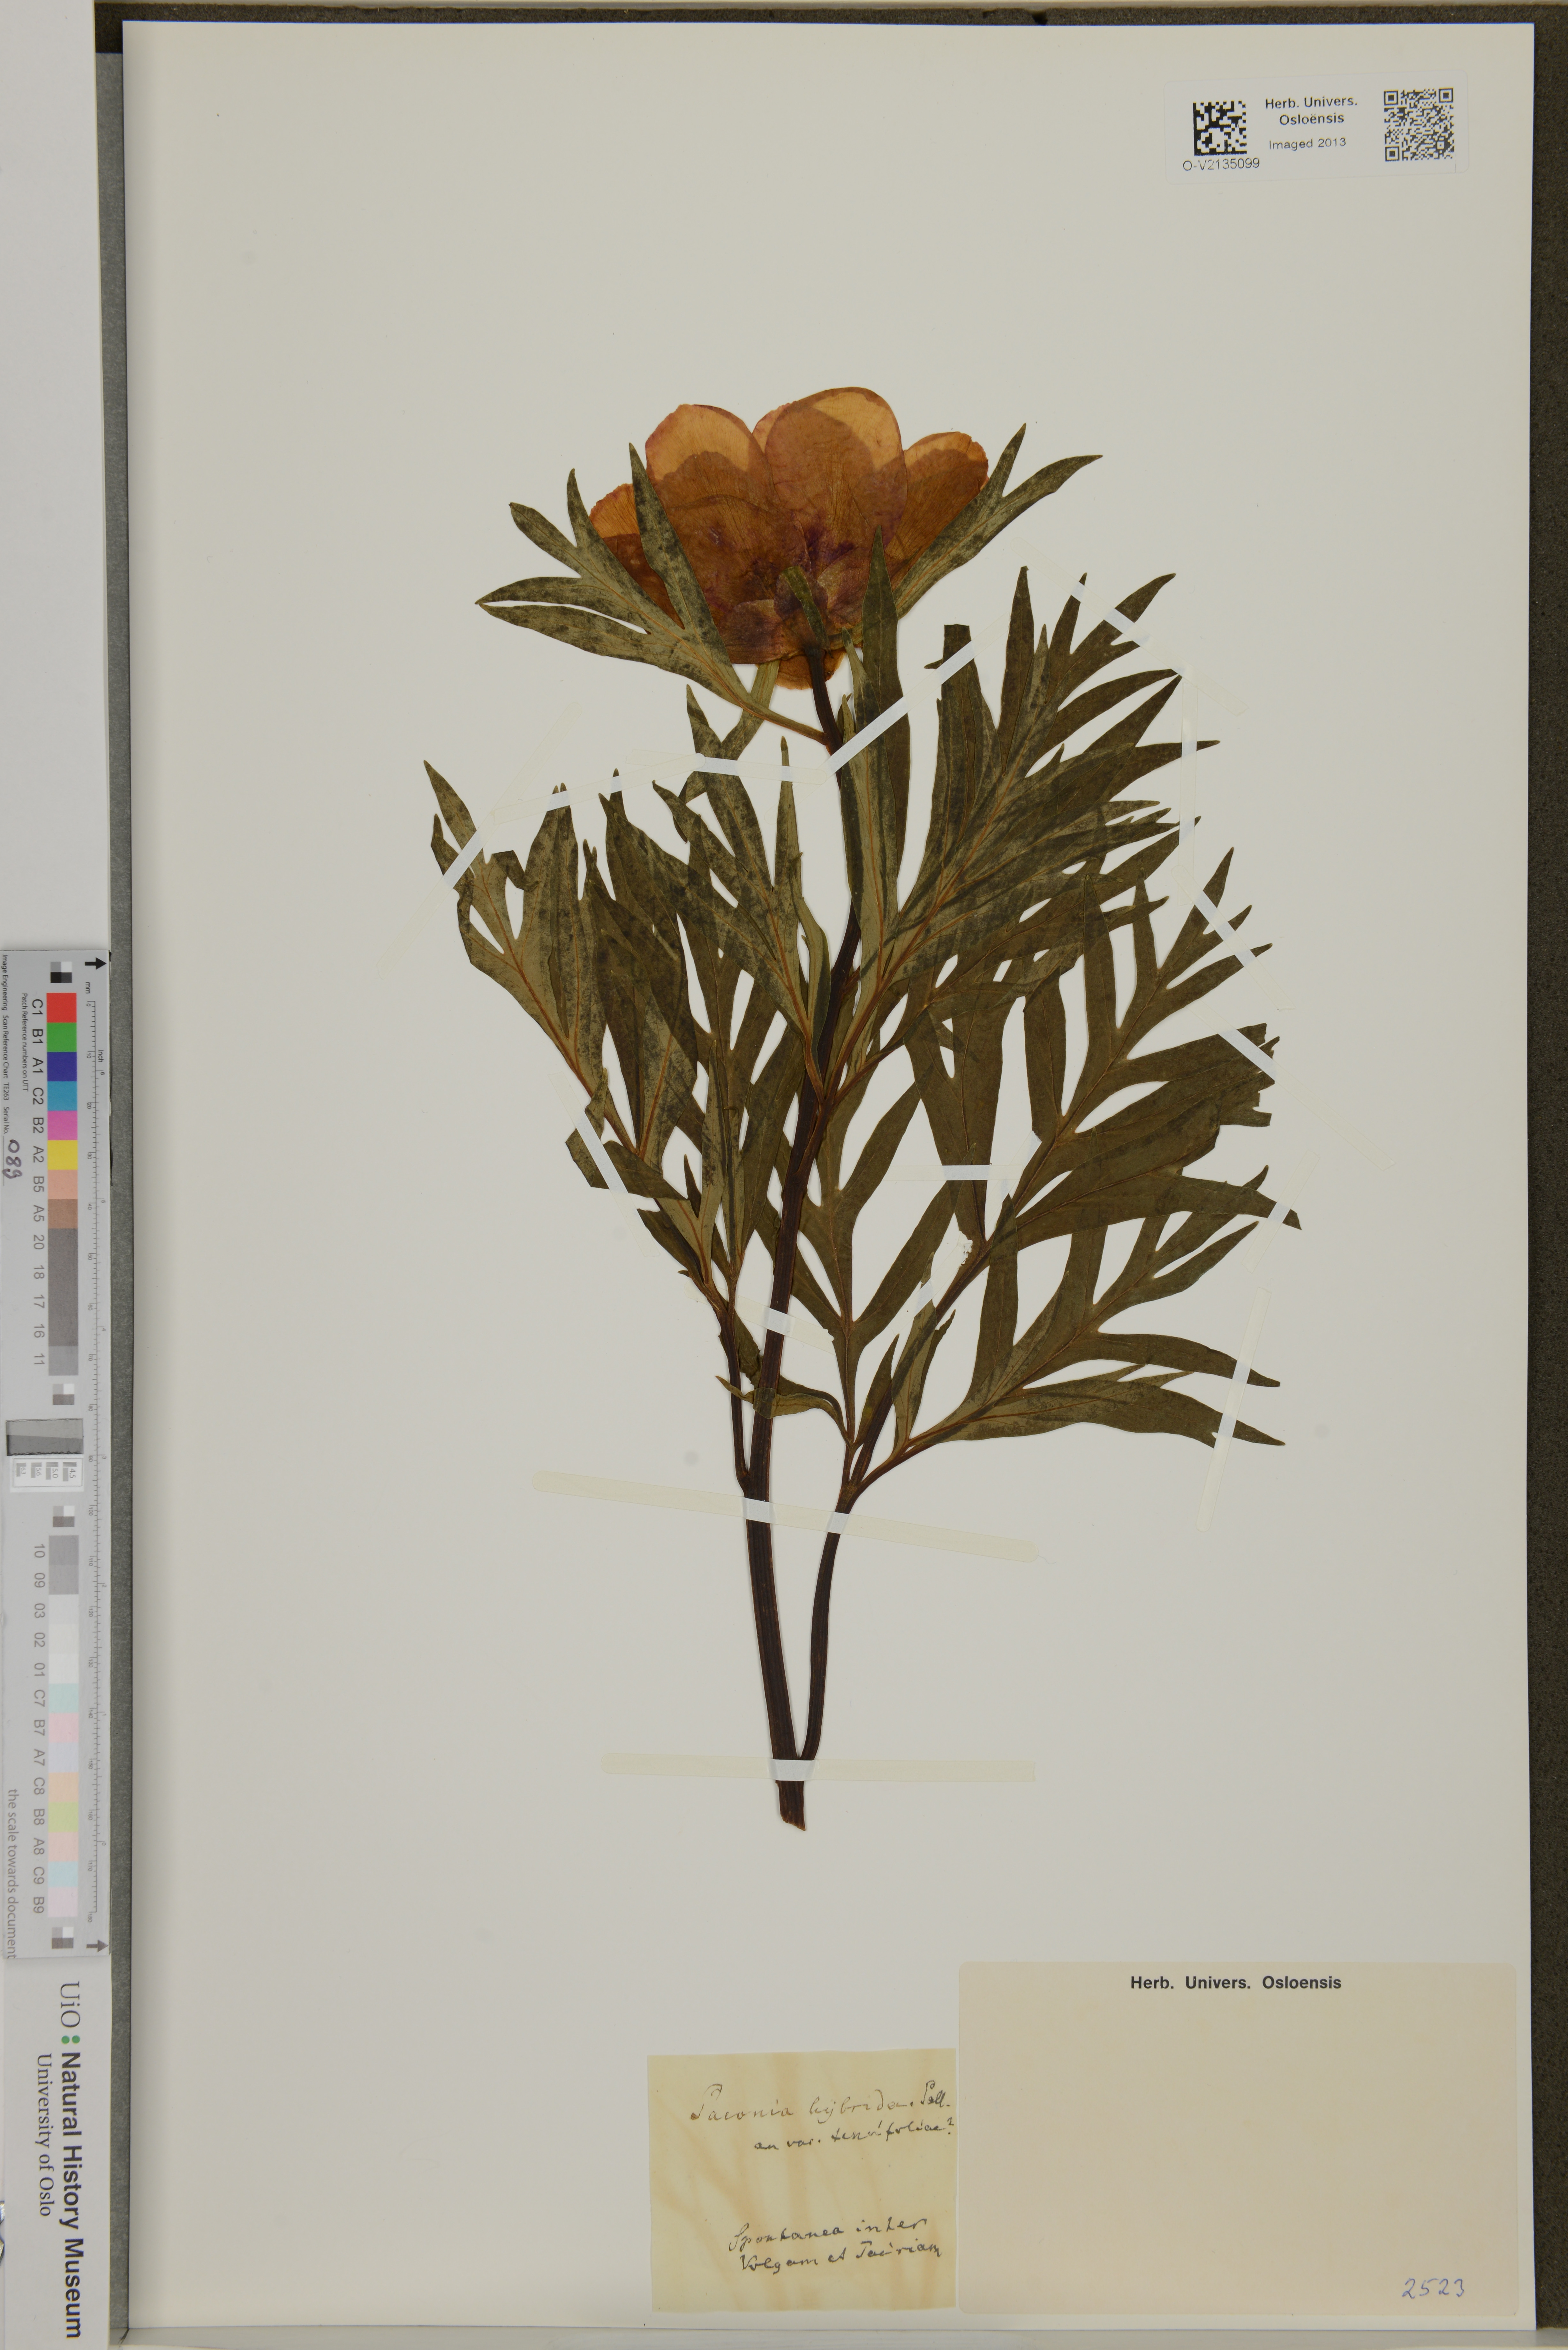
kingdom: Plantae
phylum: Tracheophyta
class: Magnoliopsida
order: Saxifragales
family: Paeoniaceae
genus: Paeonia
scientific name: Paeonia
